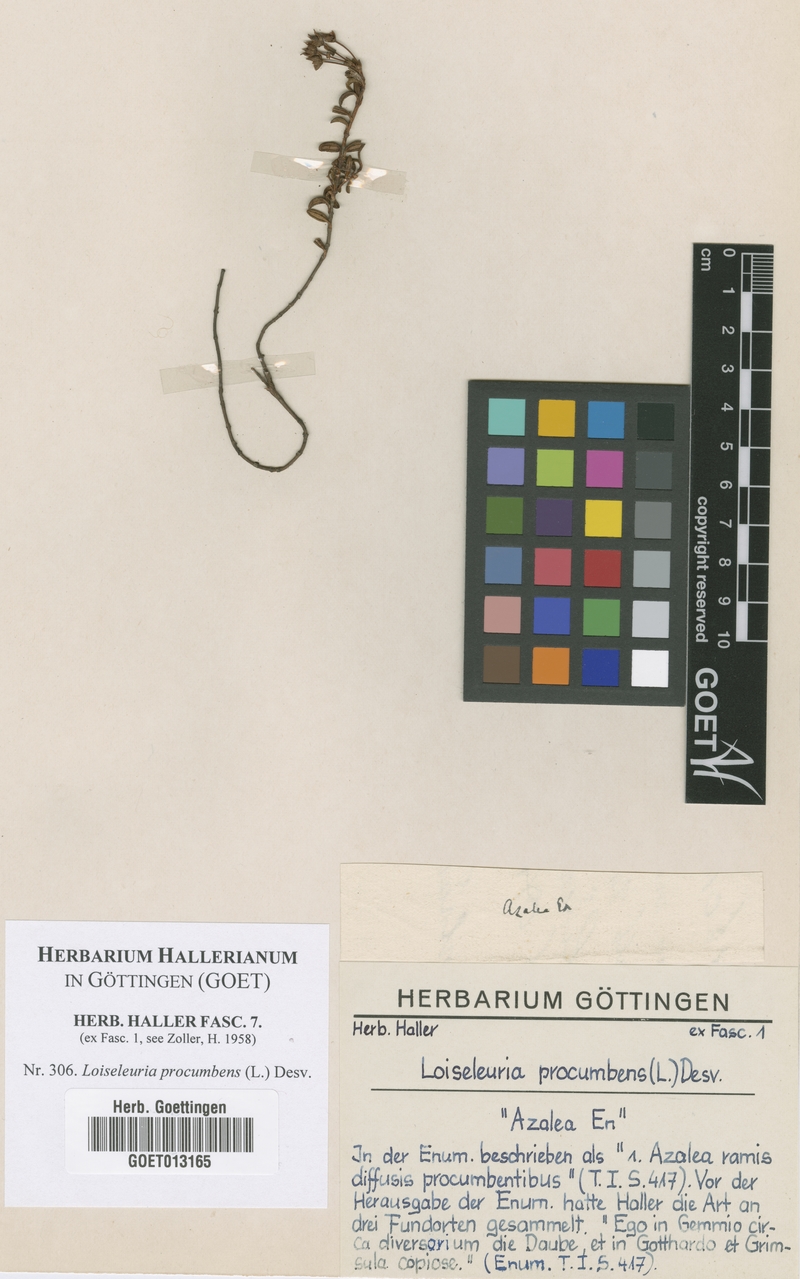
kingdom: Plantae
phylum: Tracheophyta
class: Magnoliopsida
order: Ericales
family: Ericaceae
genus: Kalmia
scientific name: Kalmia procumbens
